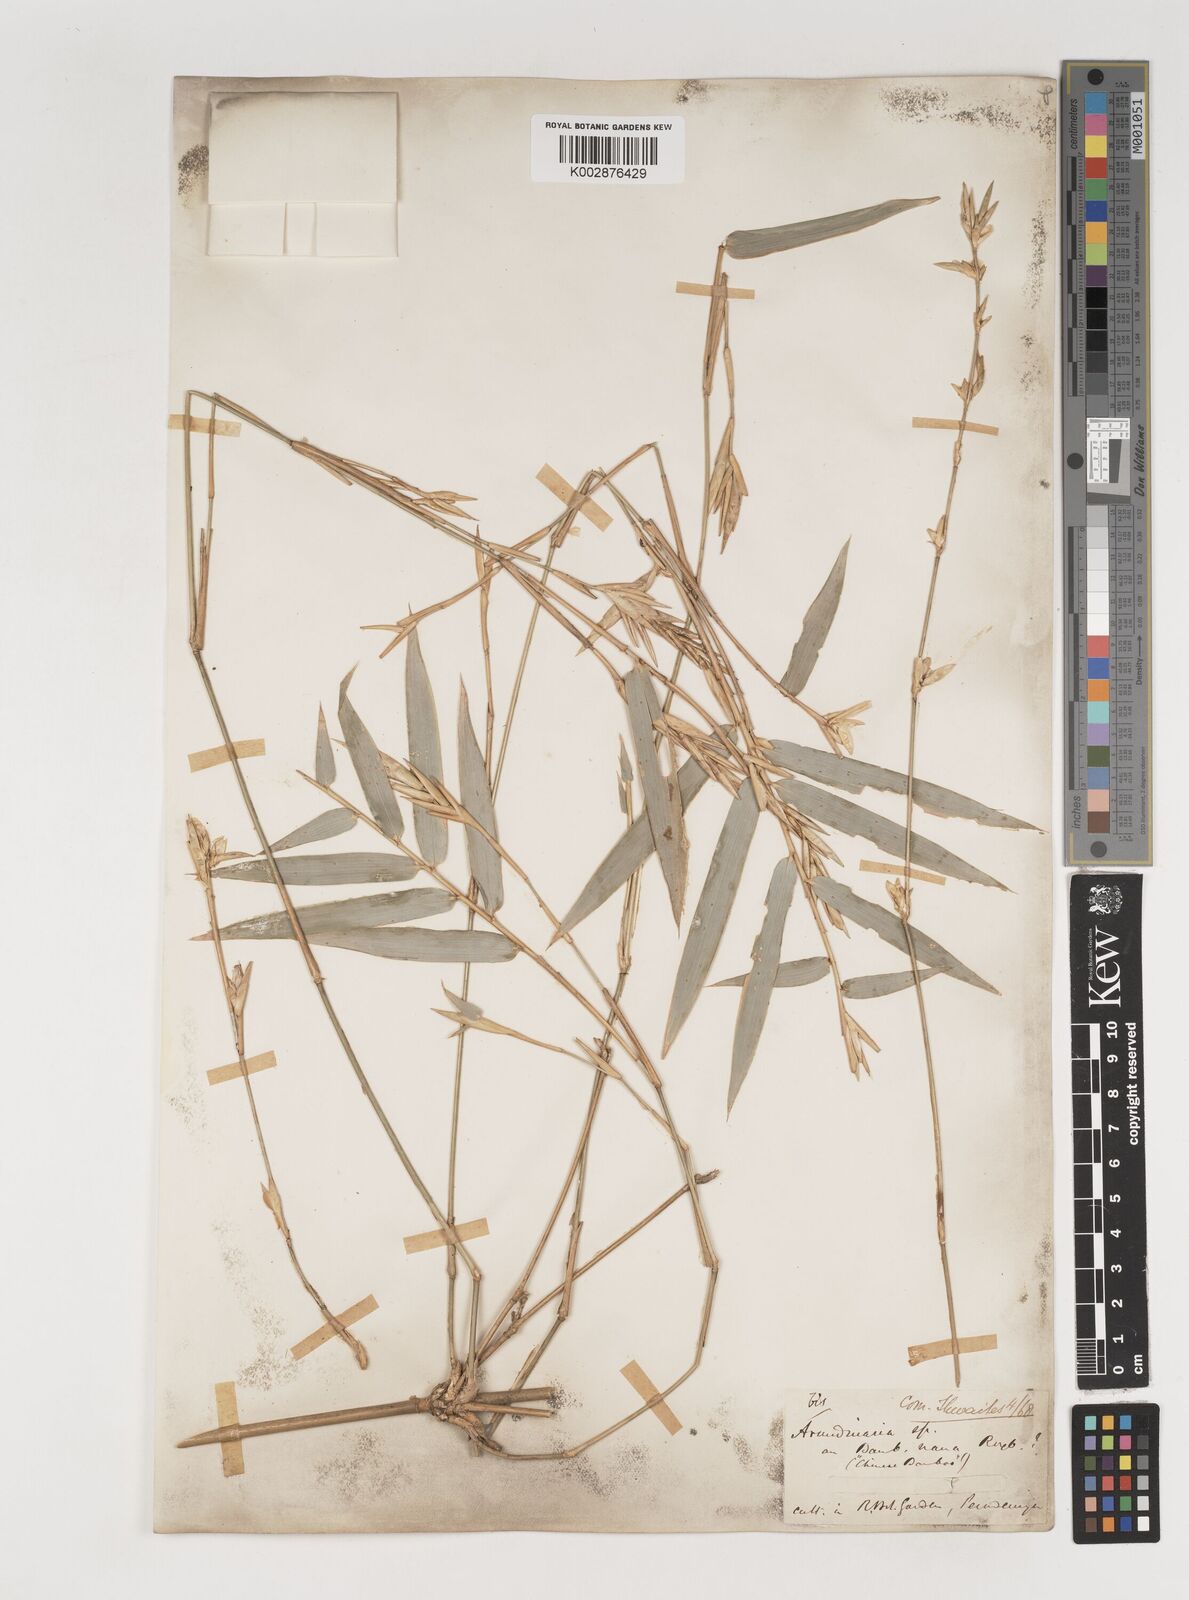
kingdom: Plantae
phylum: Tracheophyta
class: Liliopsida
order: Poales
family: Poaceae
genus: Bambusa
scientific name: Bambusa multiplex
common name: Hedge bamboo
